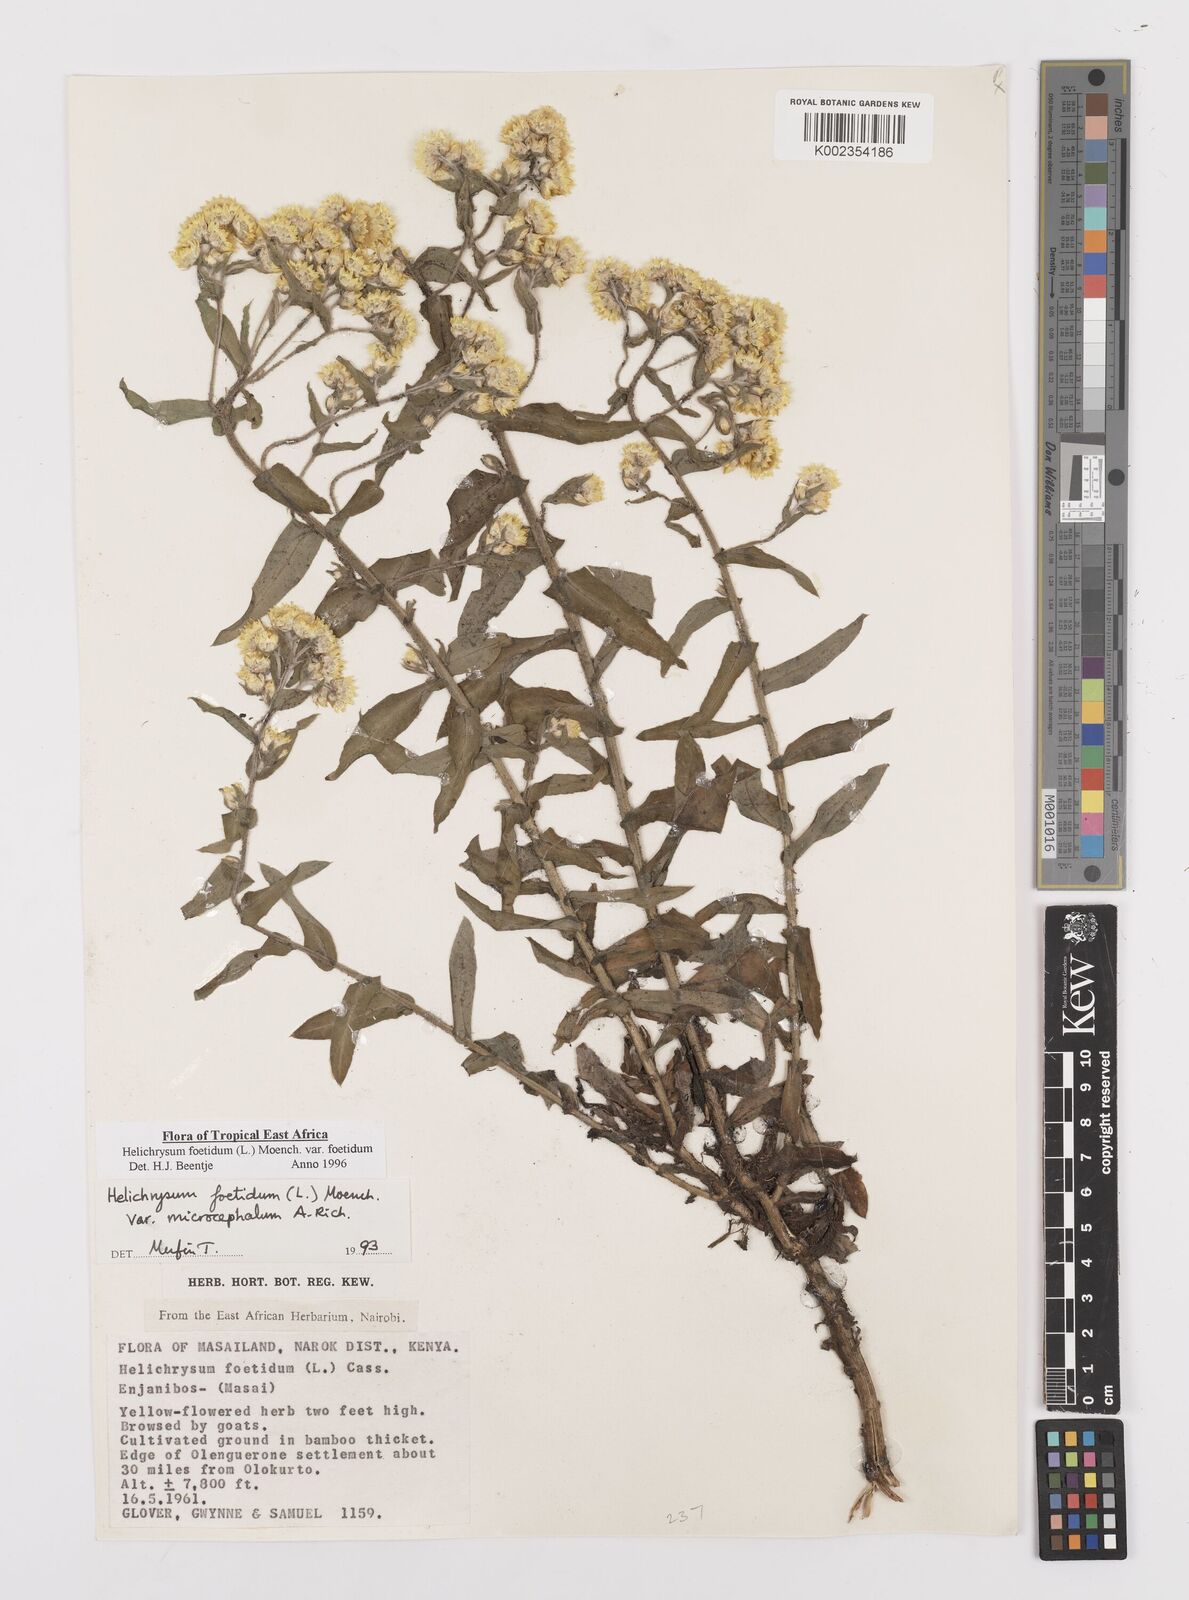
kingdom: Plantae
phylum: Tracheophyta
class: Magnoliopsida
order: Asterales
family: Asteraceae
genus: Helichrysum
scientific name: Helichrysum foetidum
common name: Stinking everlasting
